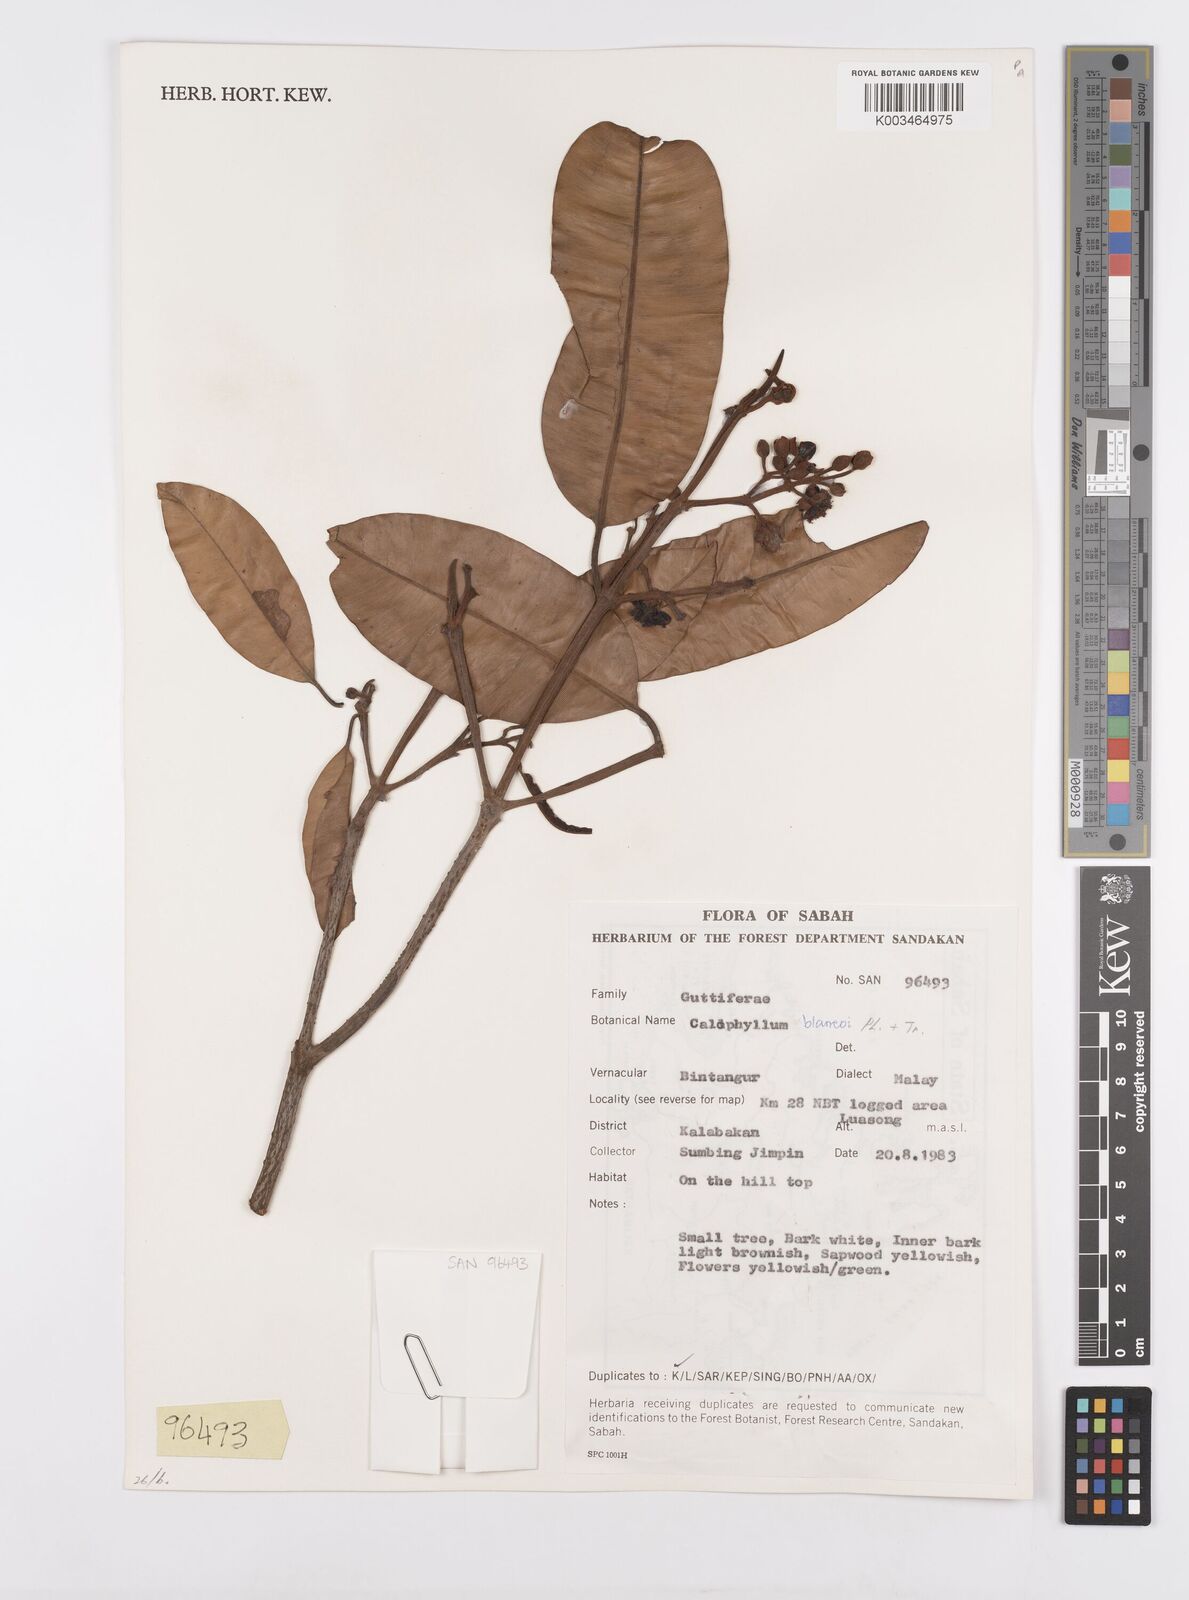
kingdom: Plantae
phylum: Tracheophyta
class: Magnoliopsida
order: Malpighiales
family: Calophyllaceae
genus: Calophyllum
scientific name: Calophyllum blancoi
